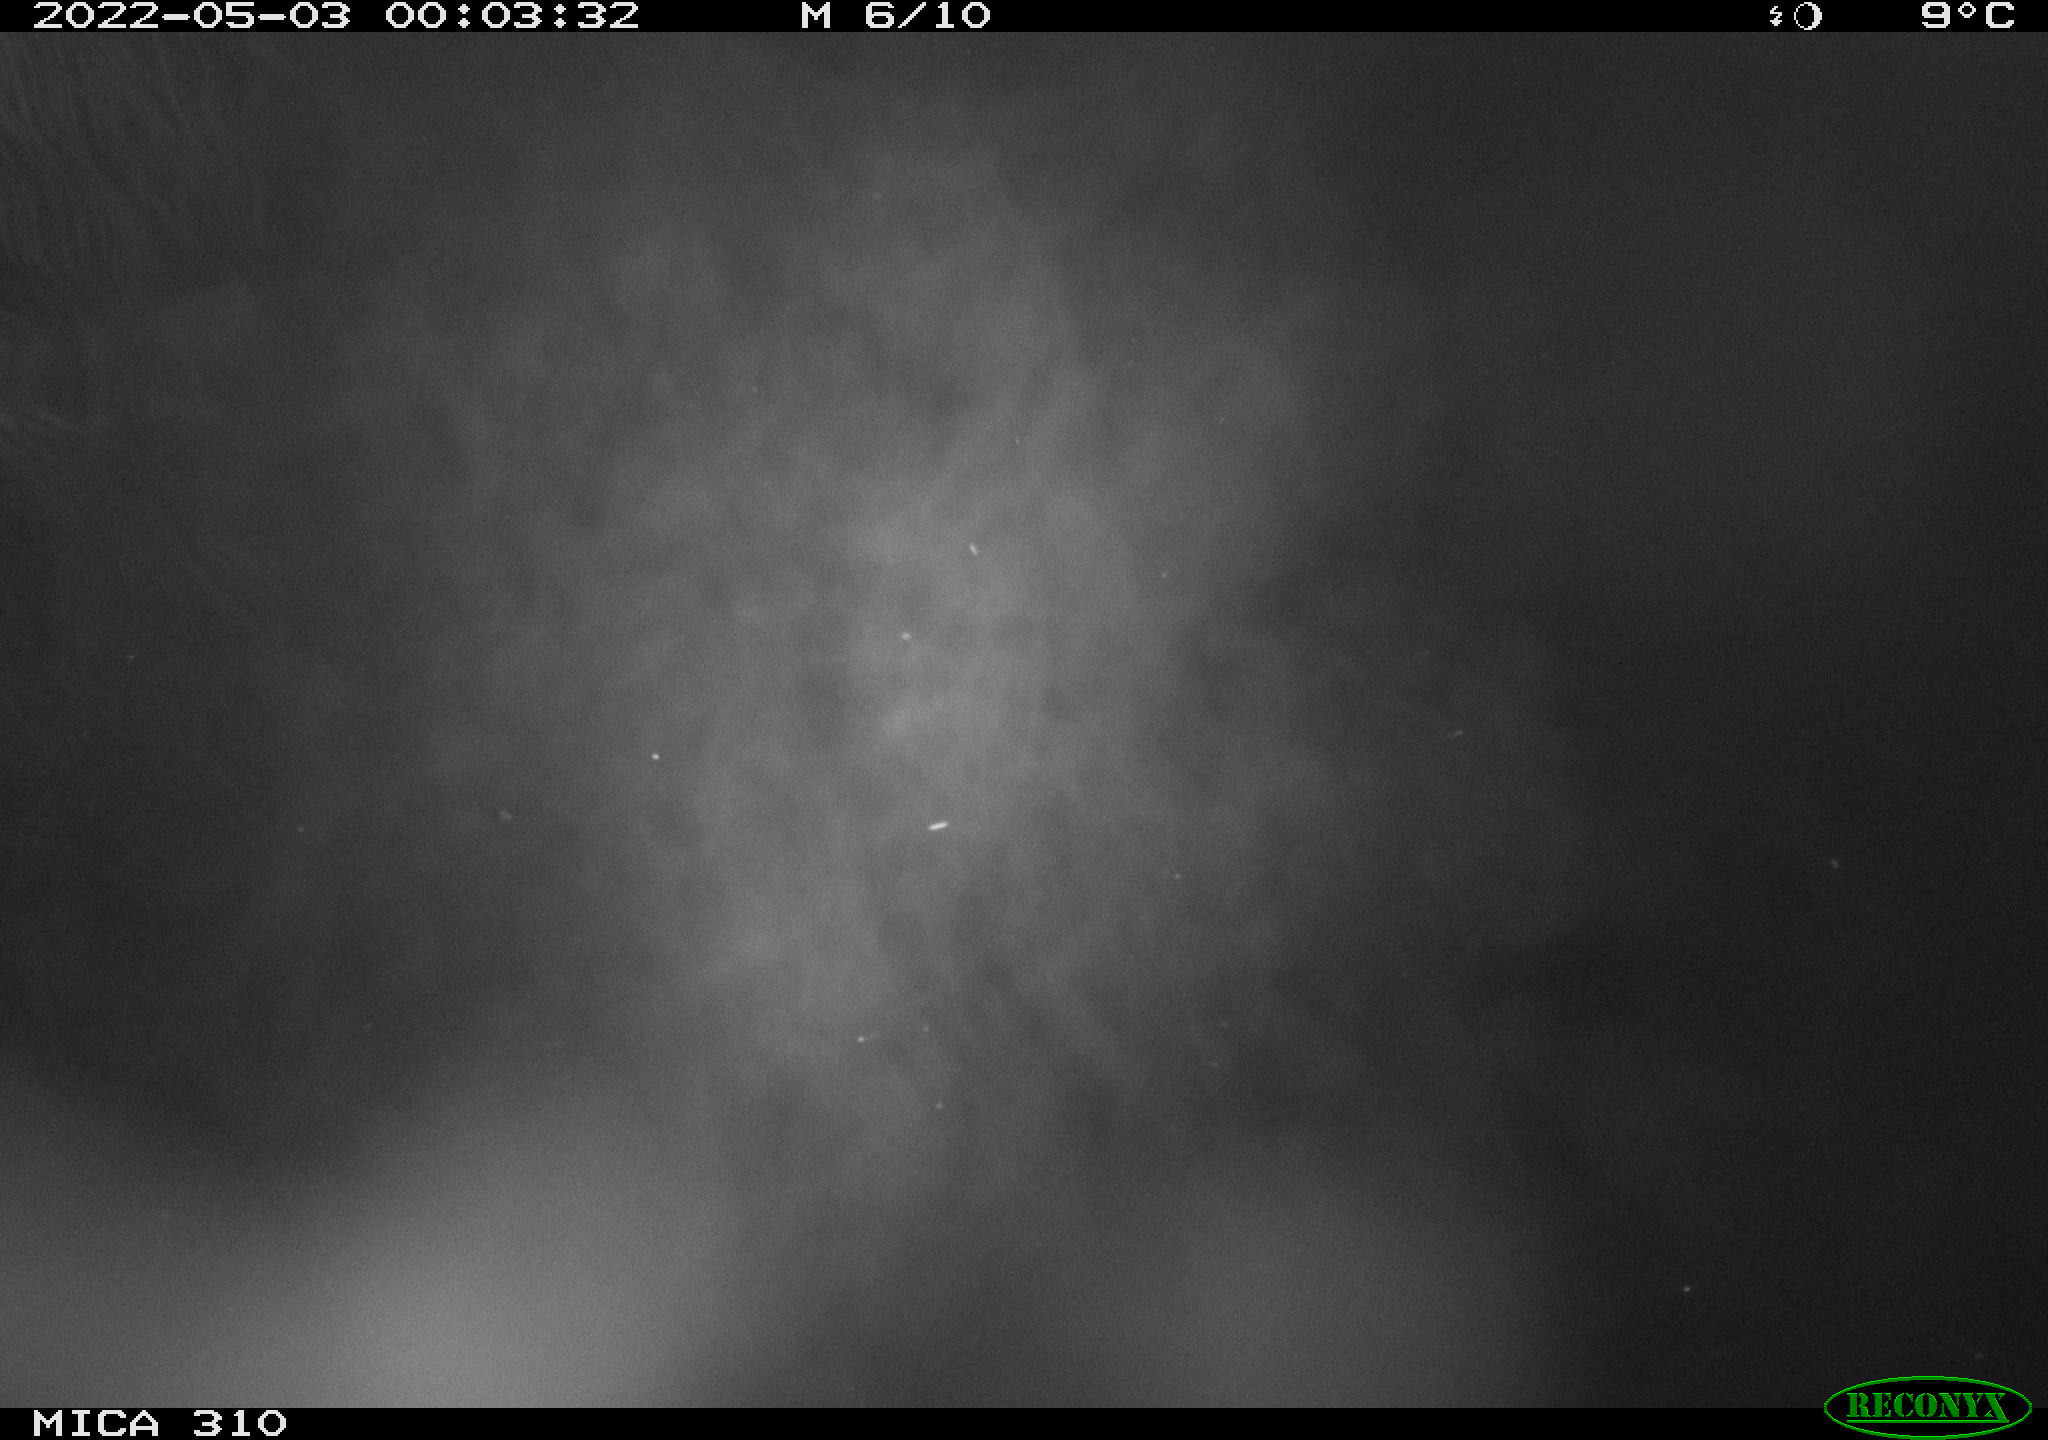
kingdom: Animalia
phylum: Chordata
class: Aves
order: Anseriformes
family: Anatidae
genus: Anas
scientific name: Anas platyrhynchos
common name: Mallard
